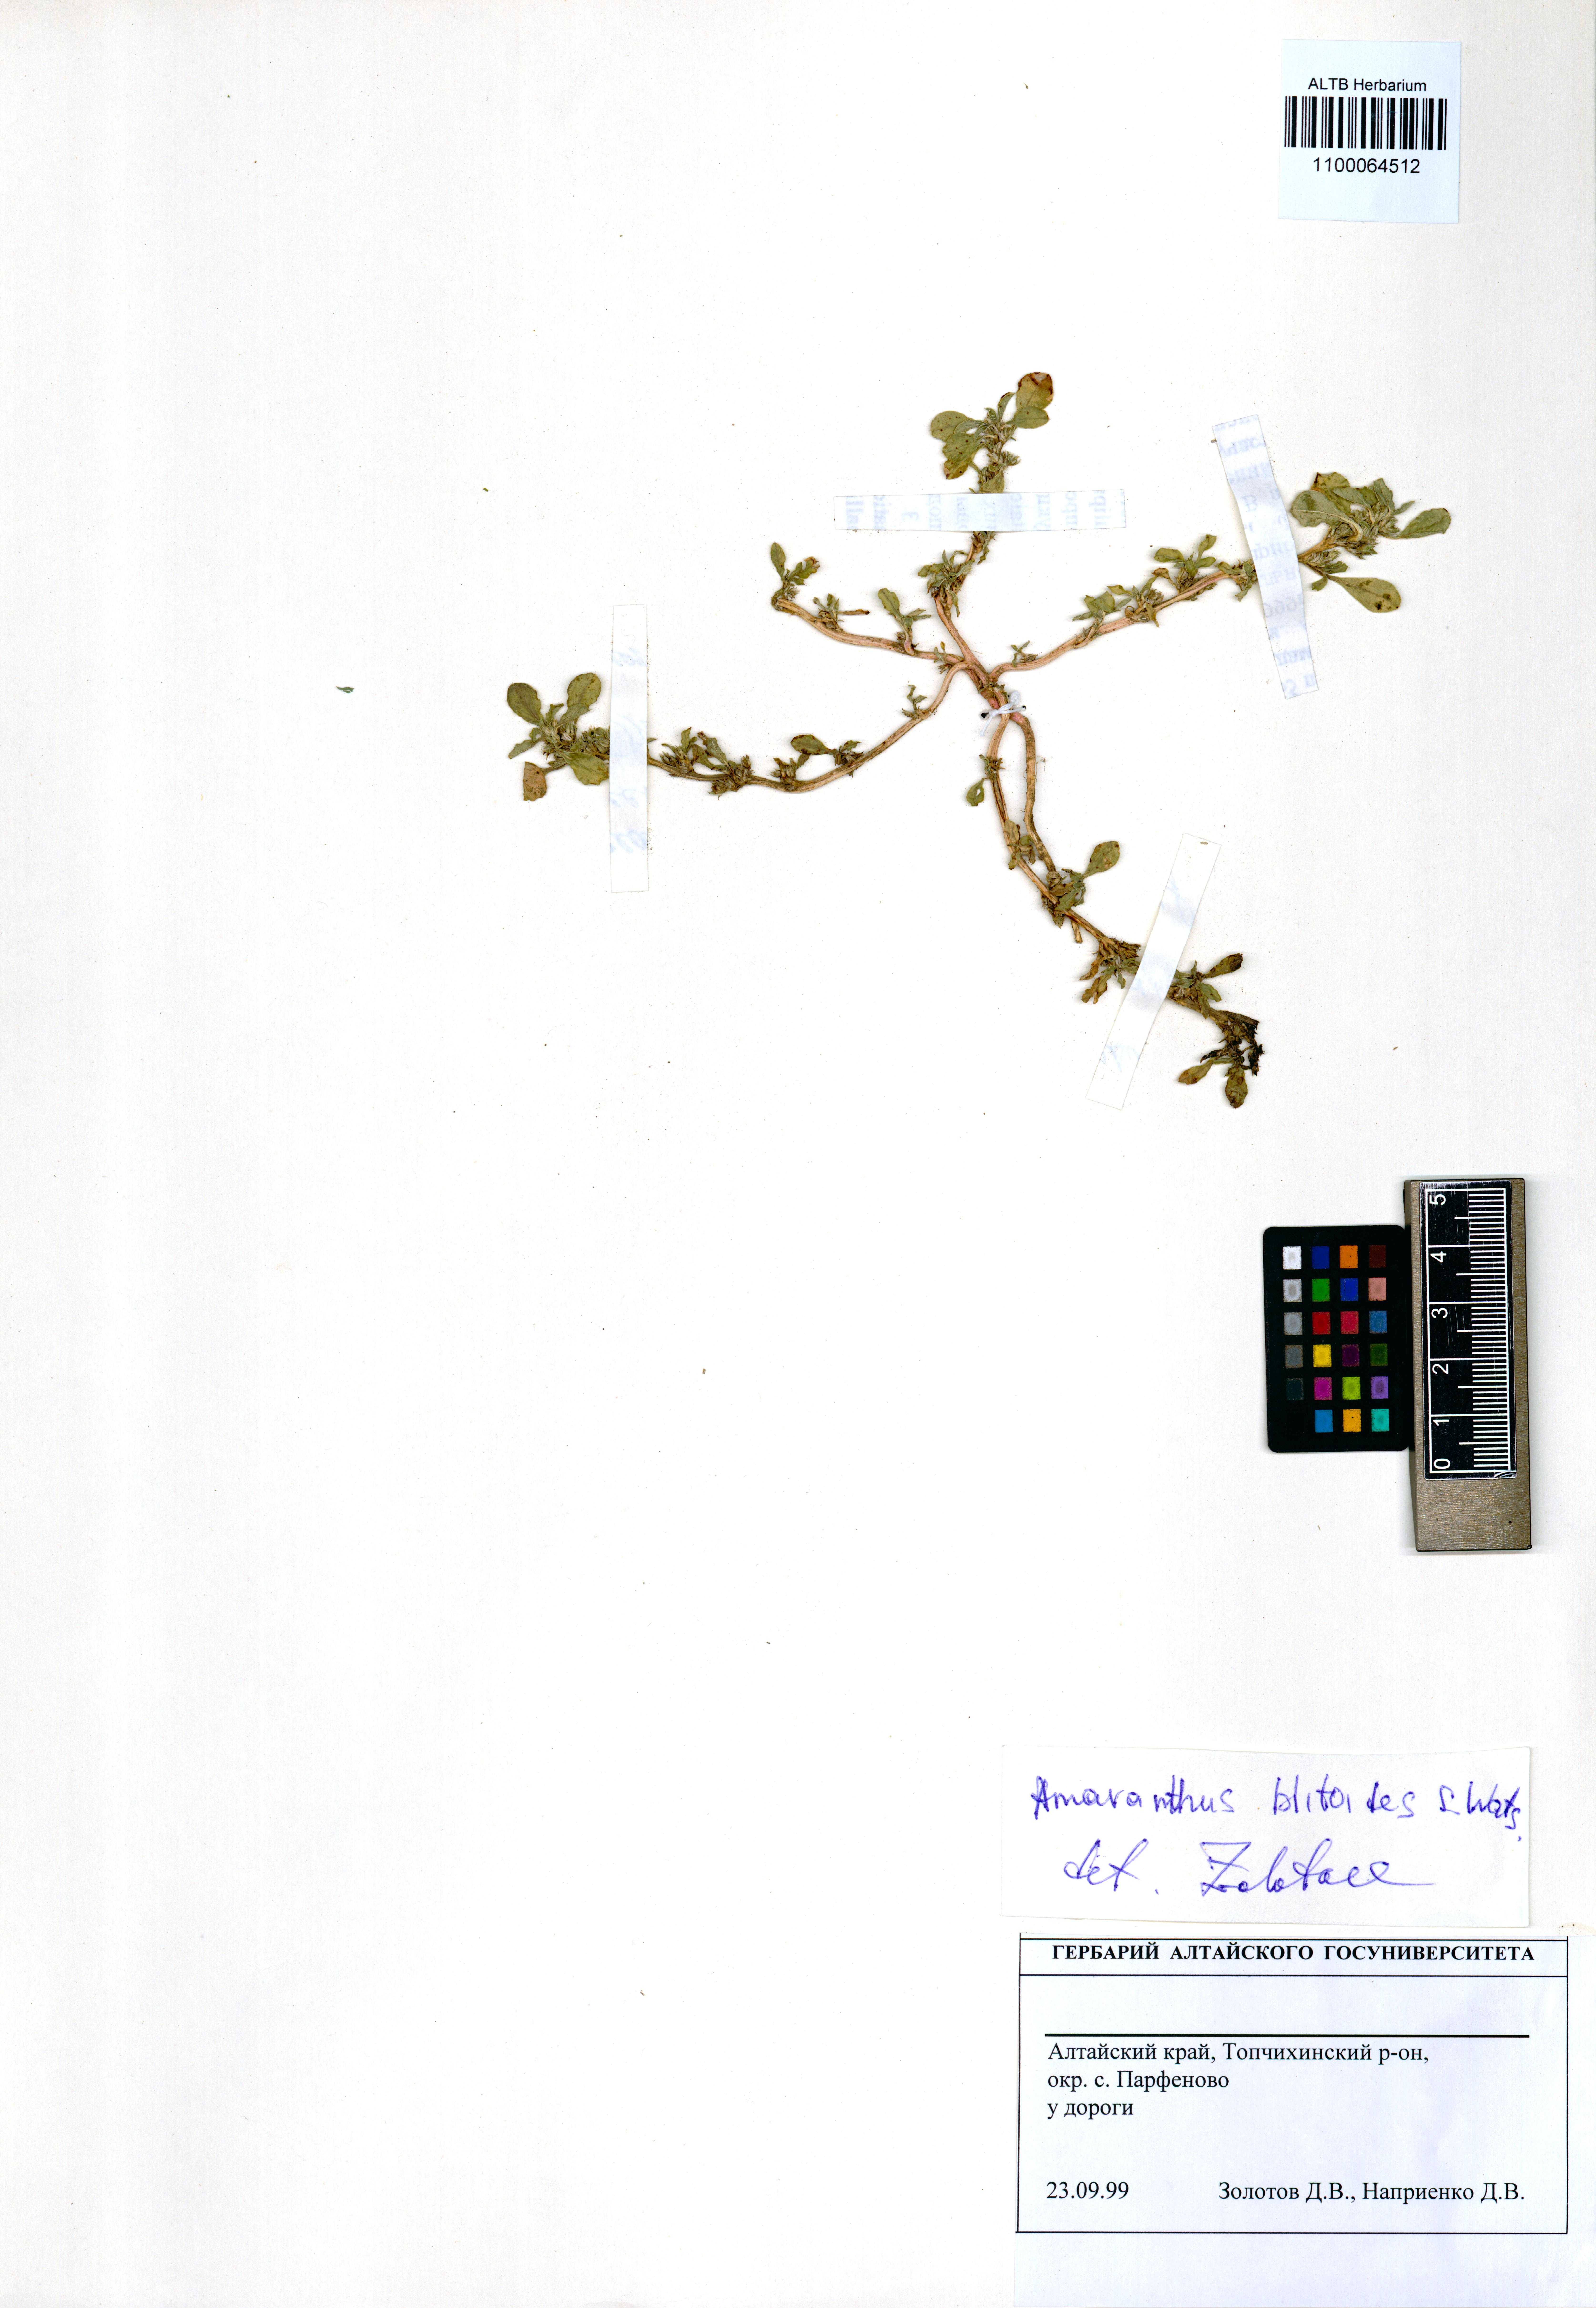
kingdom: Plantae
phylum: Tracheophyta
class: Magnoliopsida
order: Caryophyllales
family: Amaranthaceae
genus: Amaranthus
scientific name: Amaranthus blitoides
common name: Prostrate pigweed
